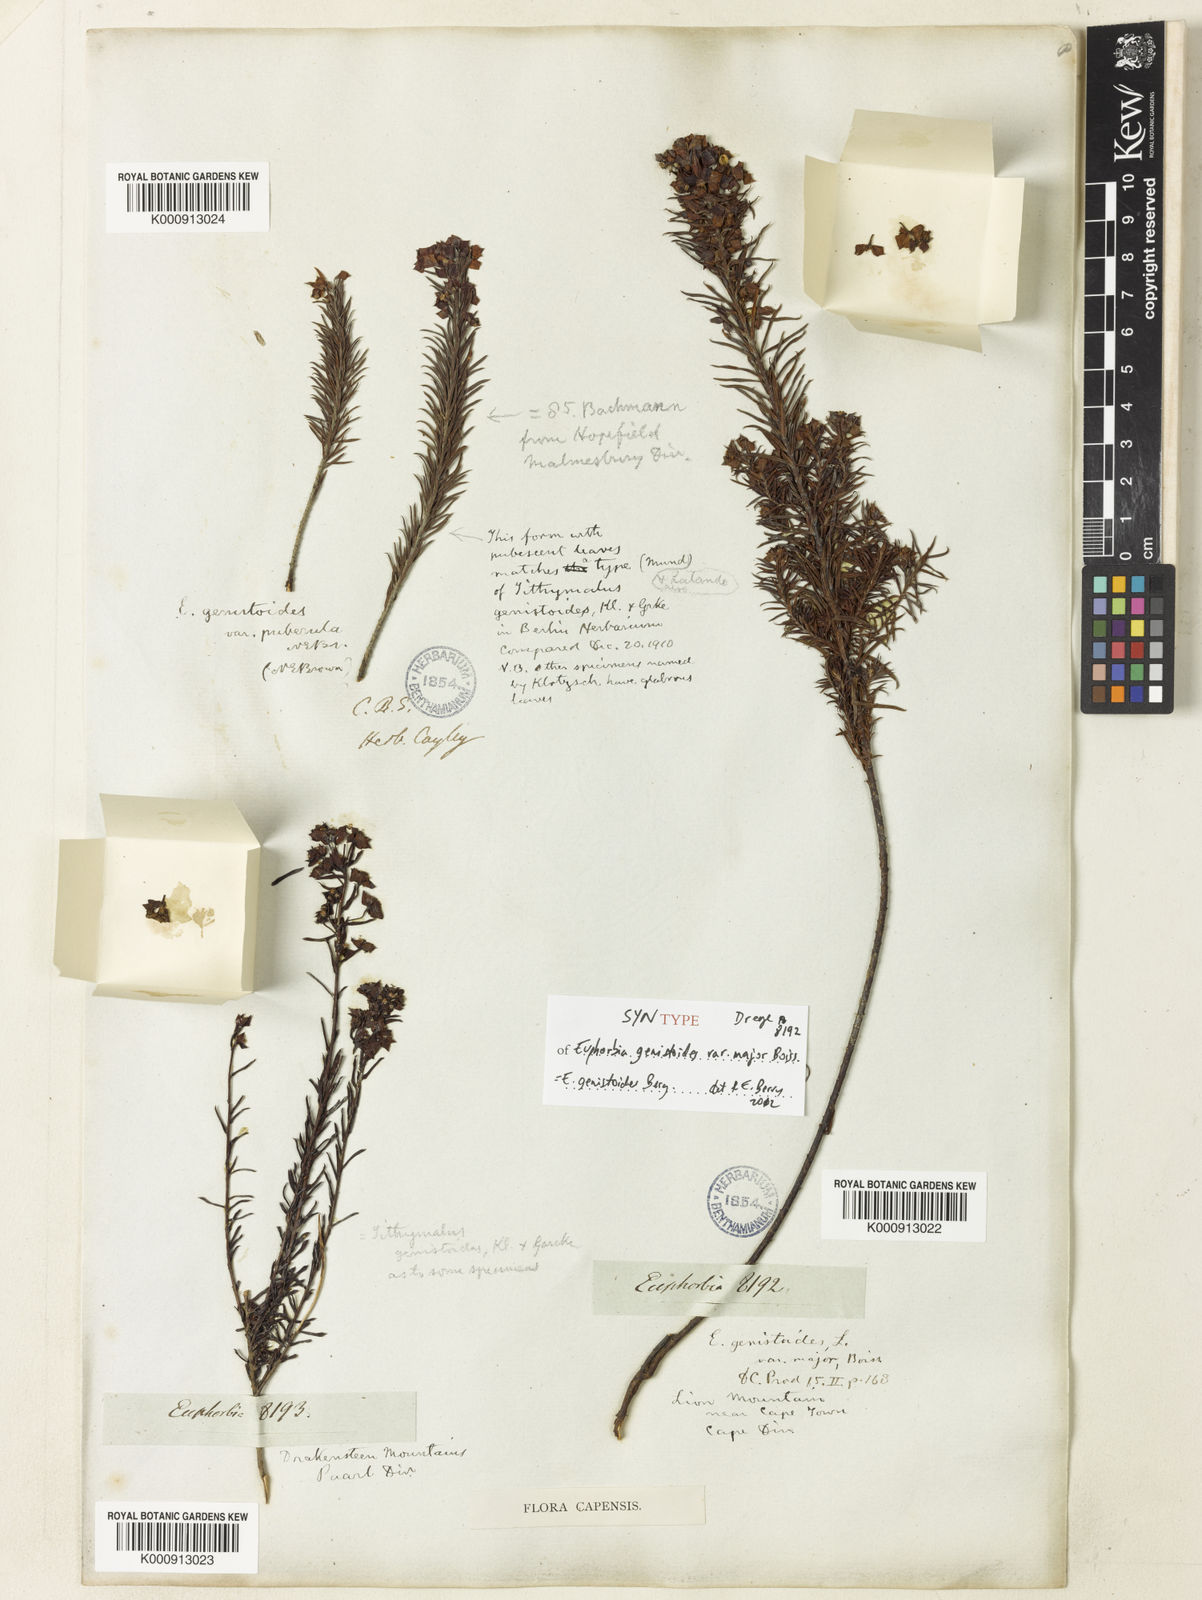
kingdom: Plantae
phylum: Tracheophyta
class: Magnoliopsida
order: Malpighiales
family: Euphorbiaceae
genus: Euphorbia
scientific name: Euphorbia genistoides
